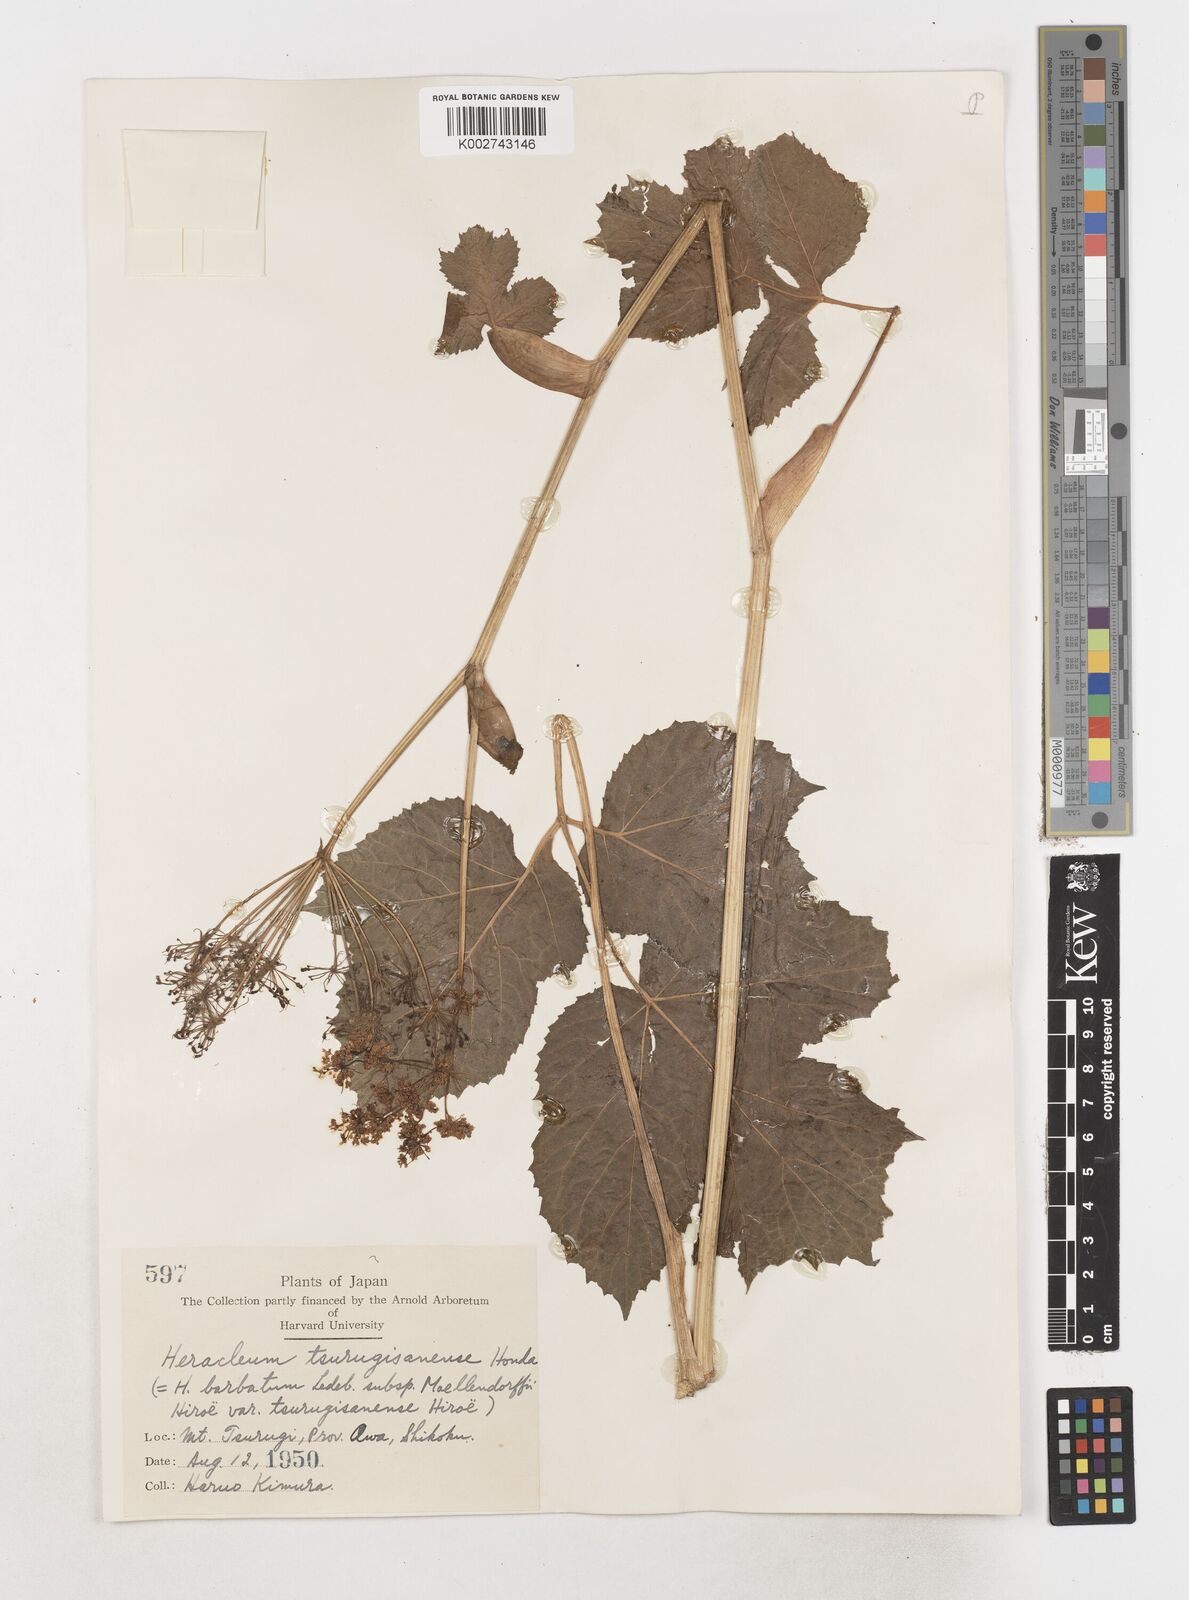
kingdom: Plantae
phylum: Tracheophyta
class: Magnoliopsida
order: Apiales
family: Apiaceae
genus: Heracleum
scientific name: Heracleum dissectum
